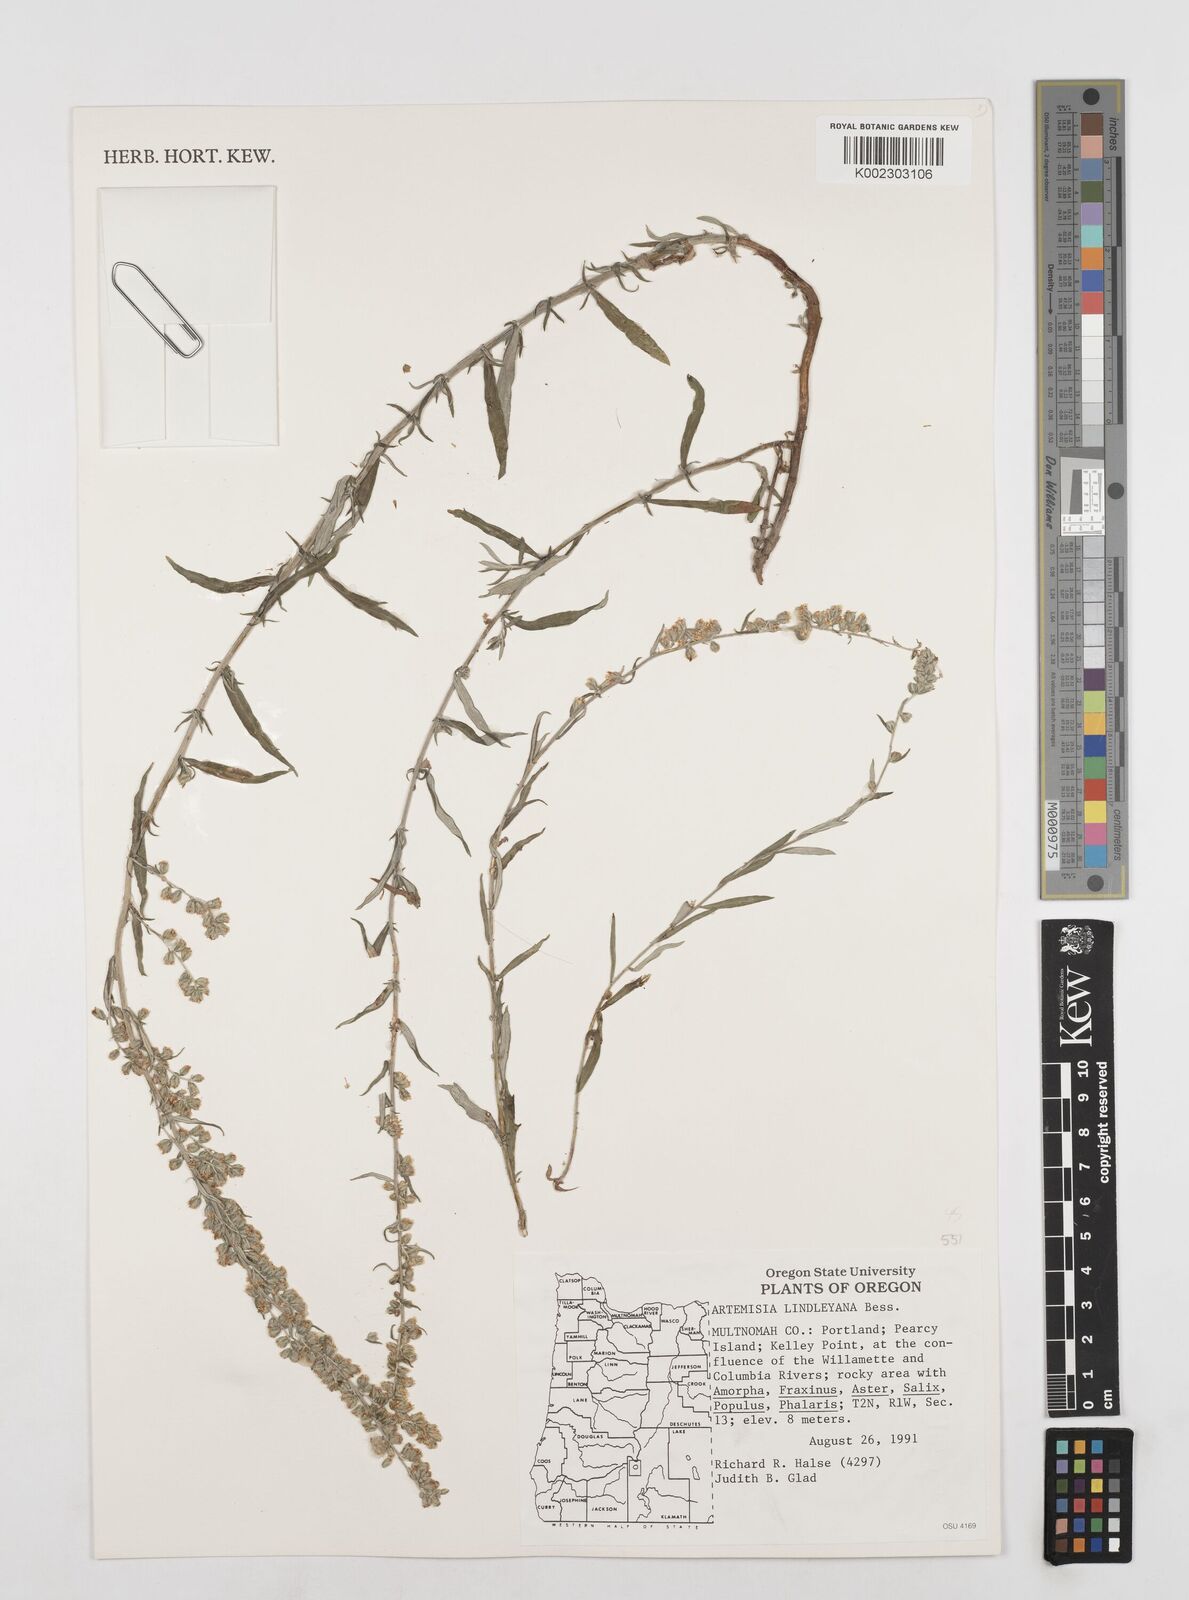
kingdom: Plantae
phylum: Tracheophyta
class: Magnoliopsida
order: Asterales
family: Asteraceae
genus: Artemisia
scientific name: Artemisia ludoviciana
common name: Western mugwort
